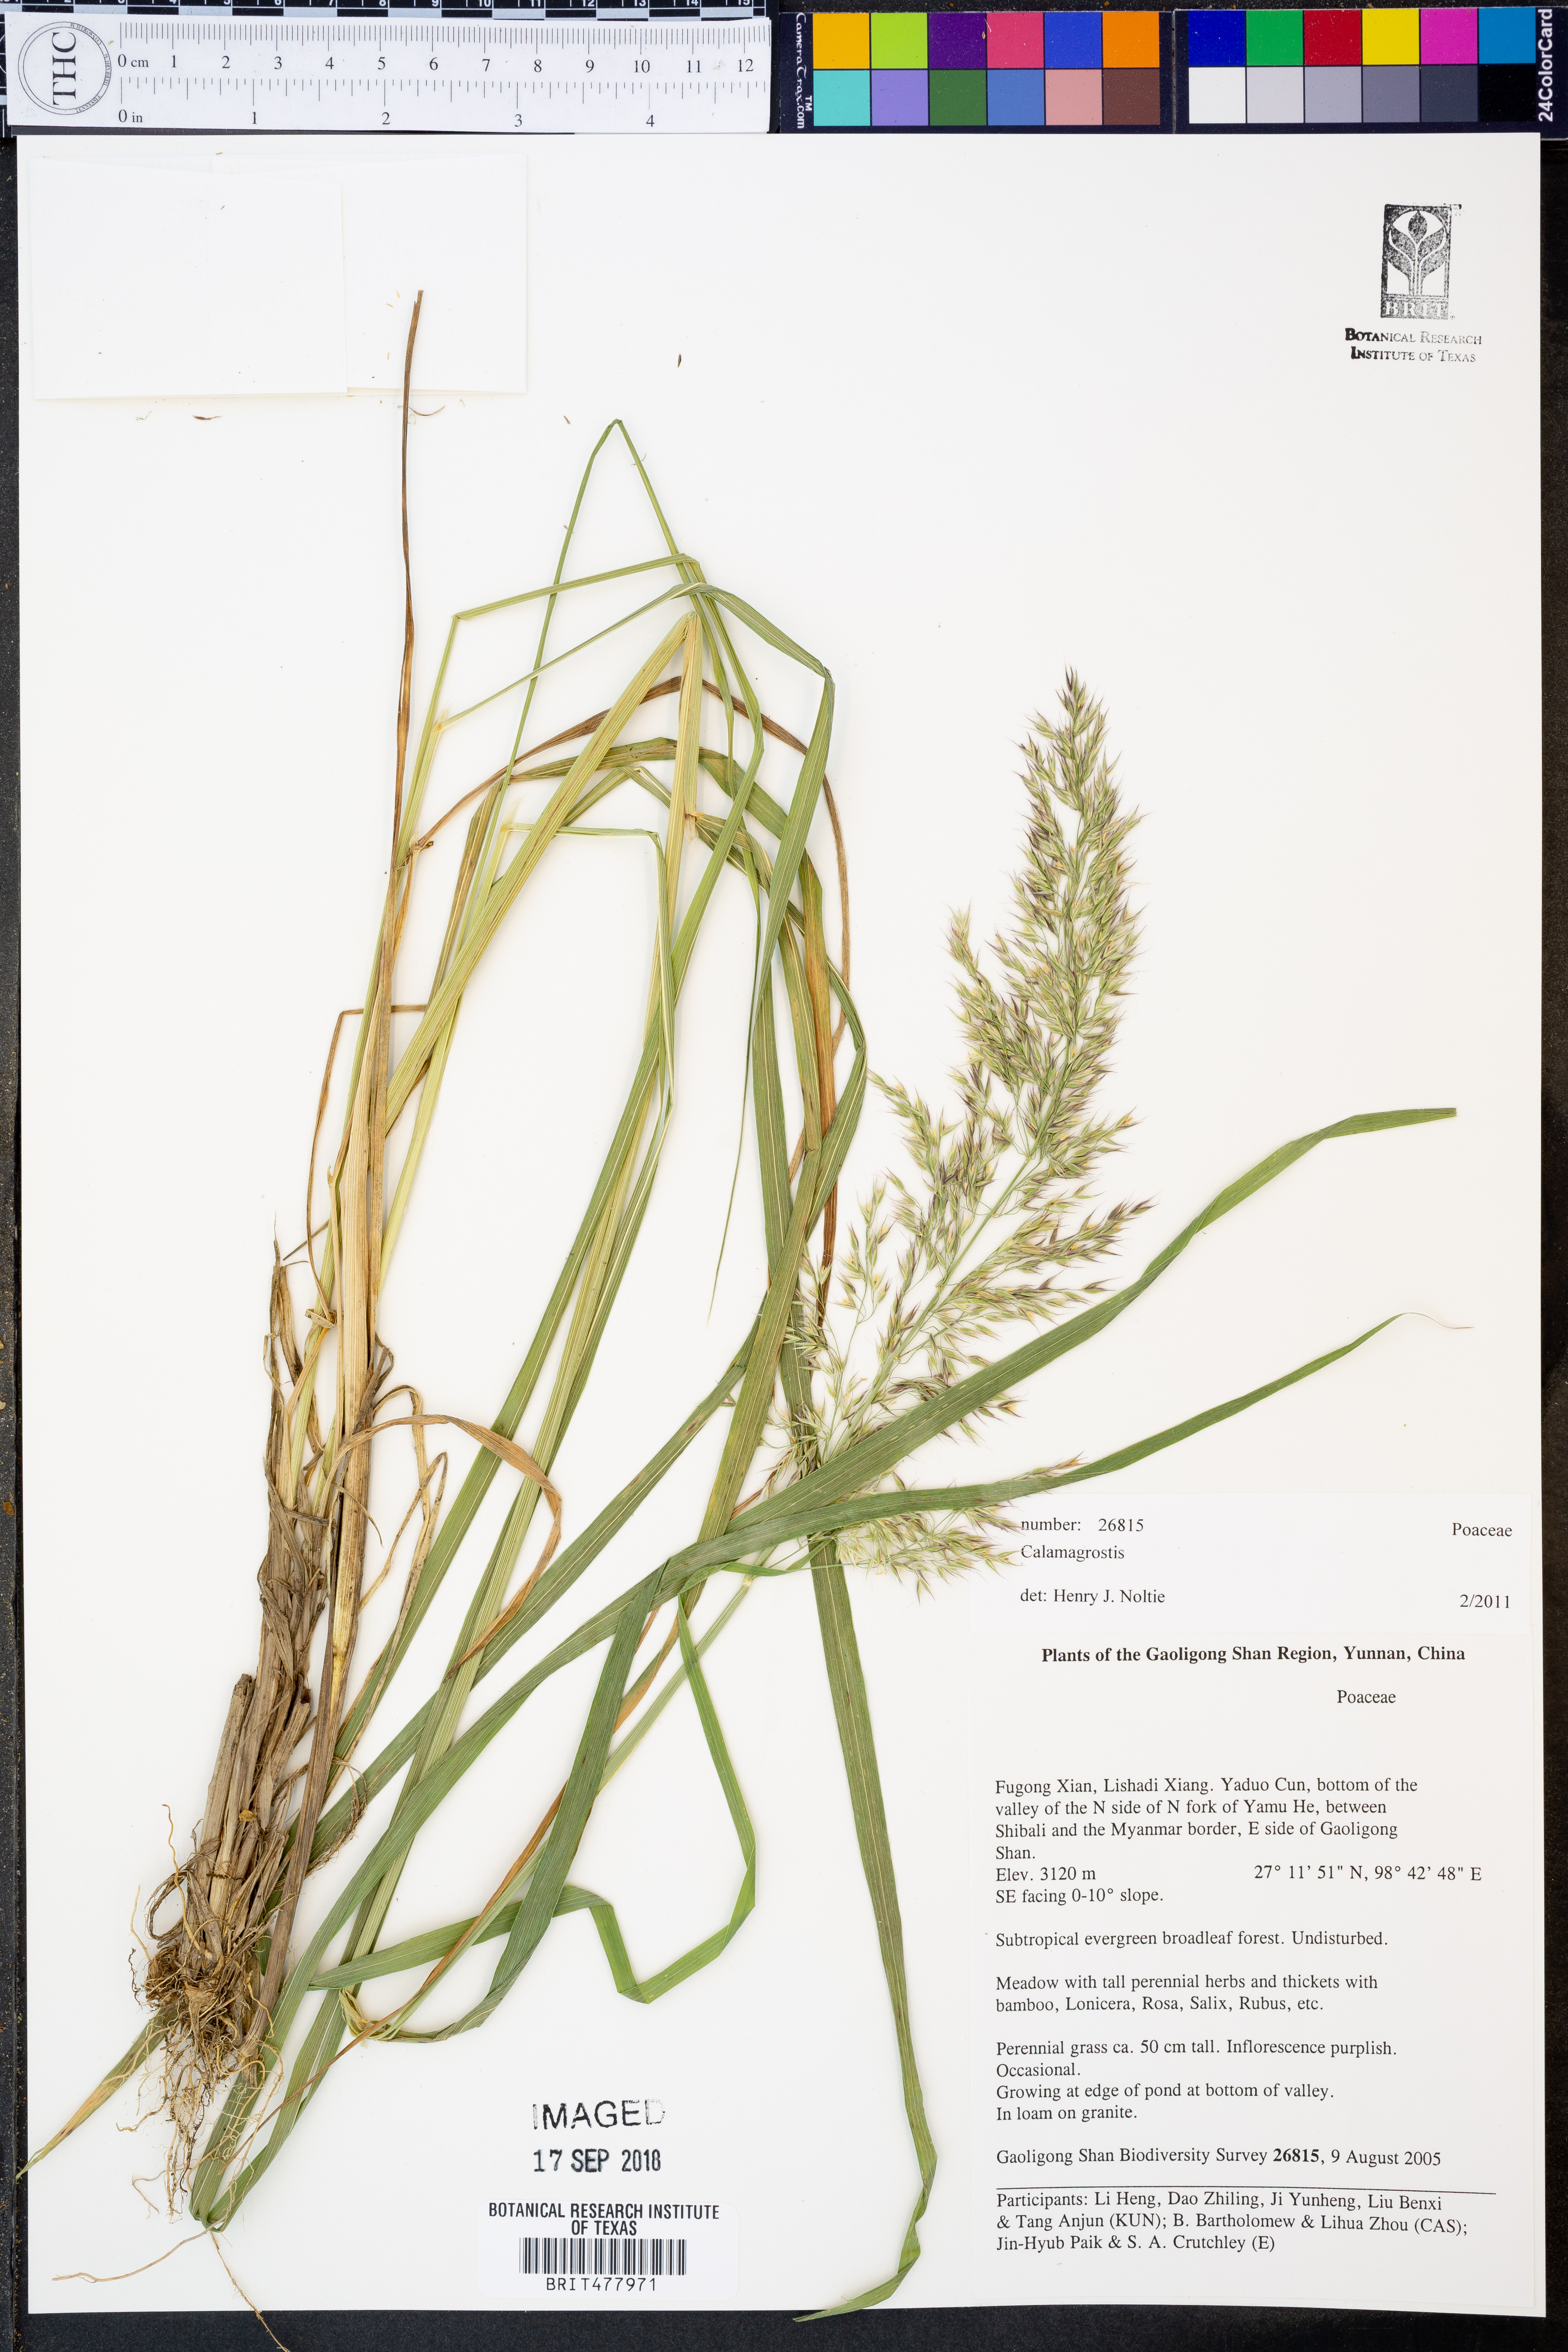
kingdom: Plantae
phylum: Tracheophyta
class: Liliopsida
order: Poales
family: Poaceae
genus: Calamagrostis
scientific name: Calamagrostis
